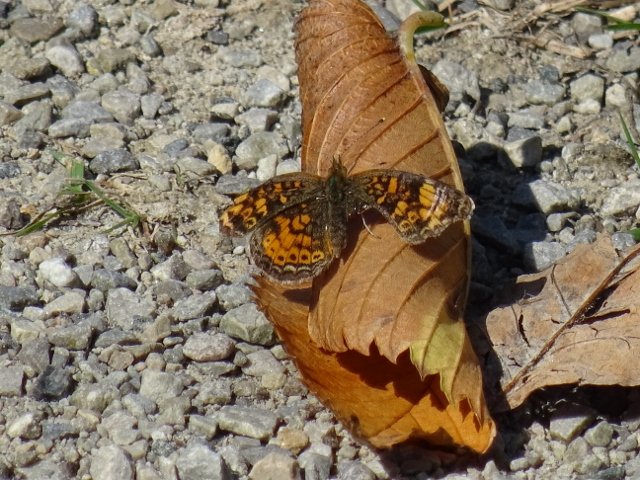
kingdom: Animalia
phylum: Arthropoda
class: Insecta
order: Lepidoptera
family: Nymphalidae
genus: Phyciodes
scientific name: Phyciodes tharos
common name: Northern Crescent
